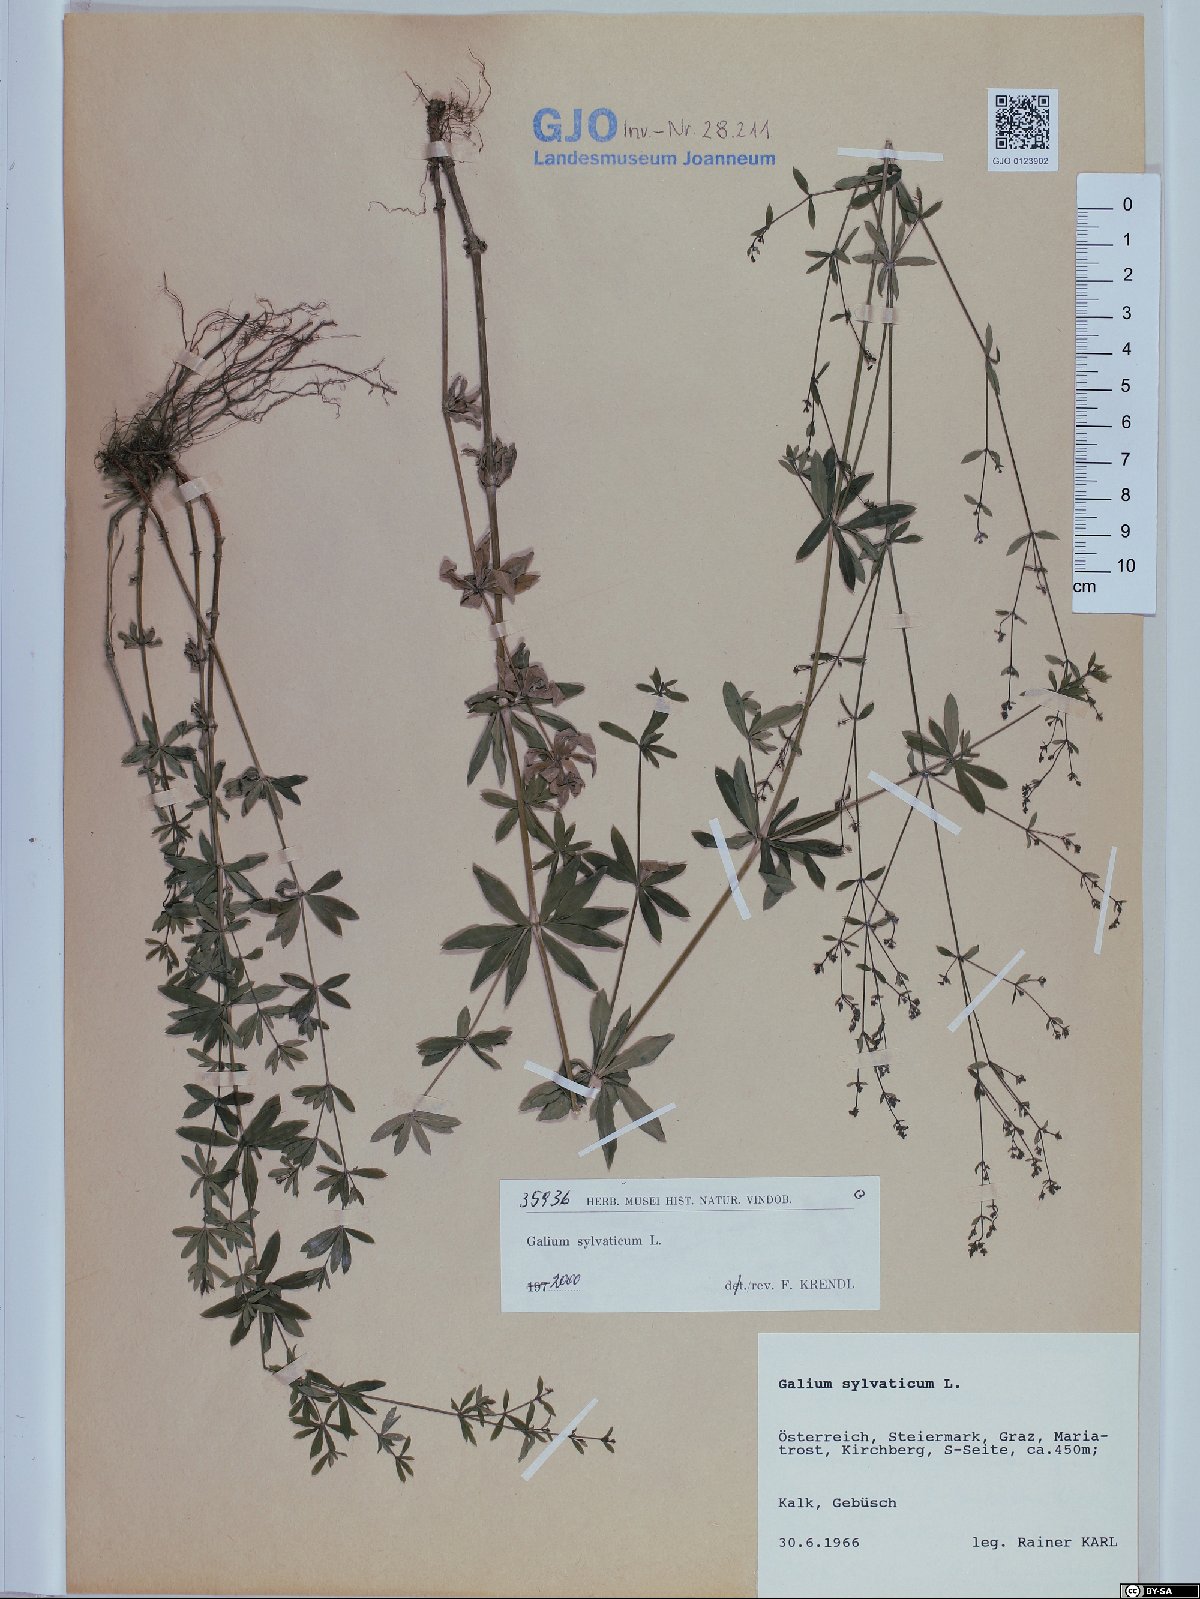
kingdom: Plantae
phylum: Tracheophyta
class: Magnoliopsida
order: Gentianales
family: Rubiaceae
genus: Galium
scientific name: Galium sylvaticum
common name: Wood bedstraw
